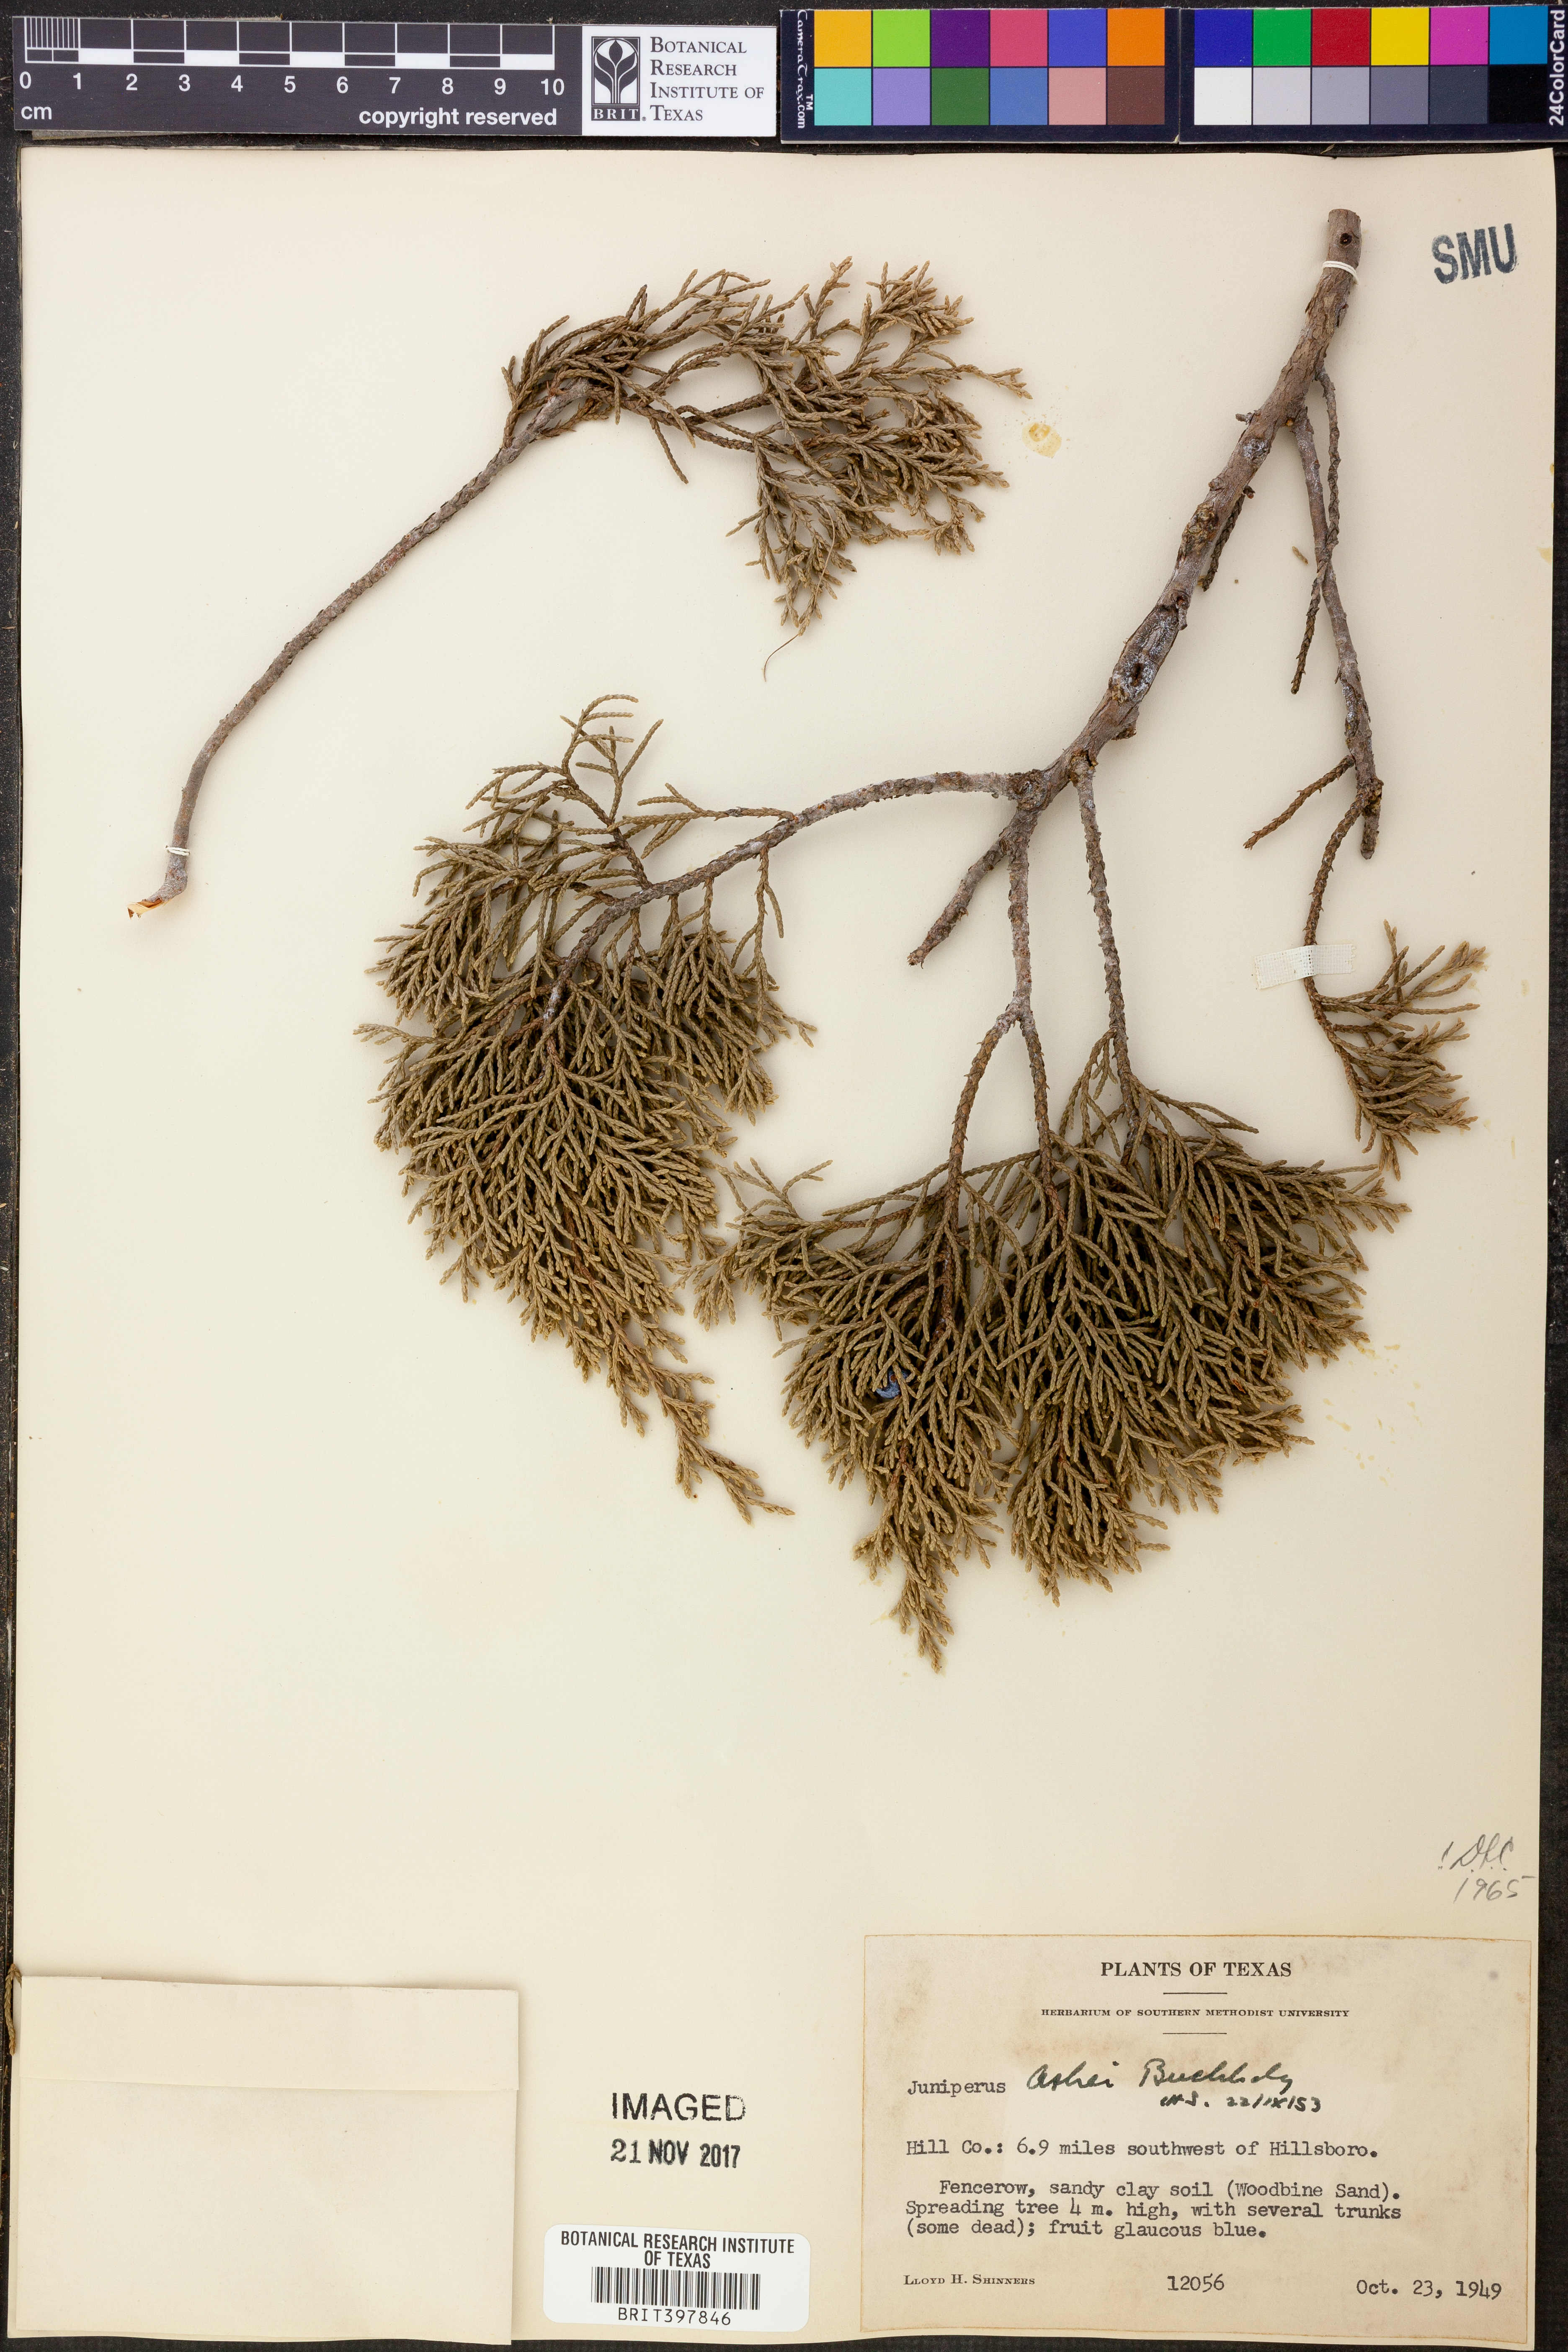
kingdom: Plantae
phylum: Tracheophyta
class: Pinopsida
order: Pinales
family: Cupressaceae
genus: Juniperus
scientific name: Juniperus ashei
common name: Mexican juniper
